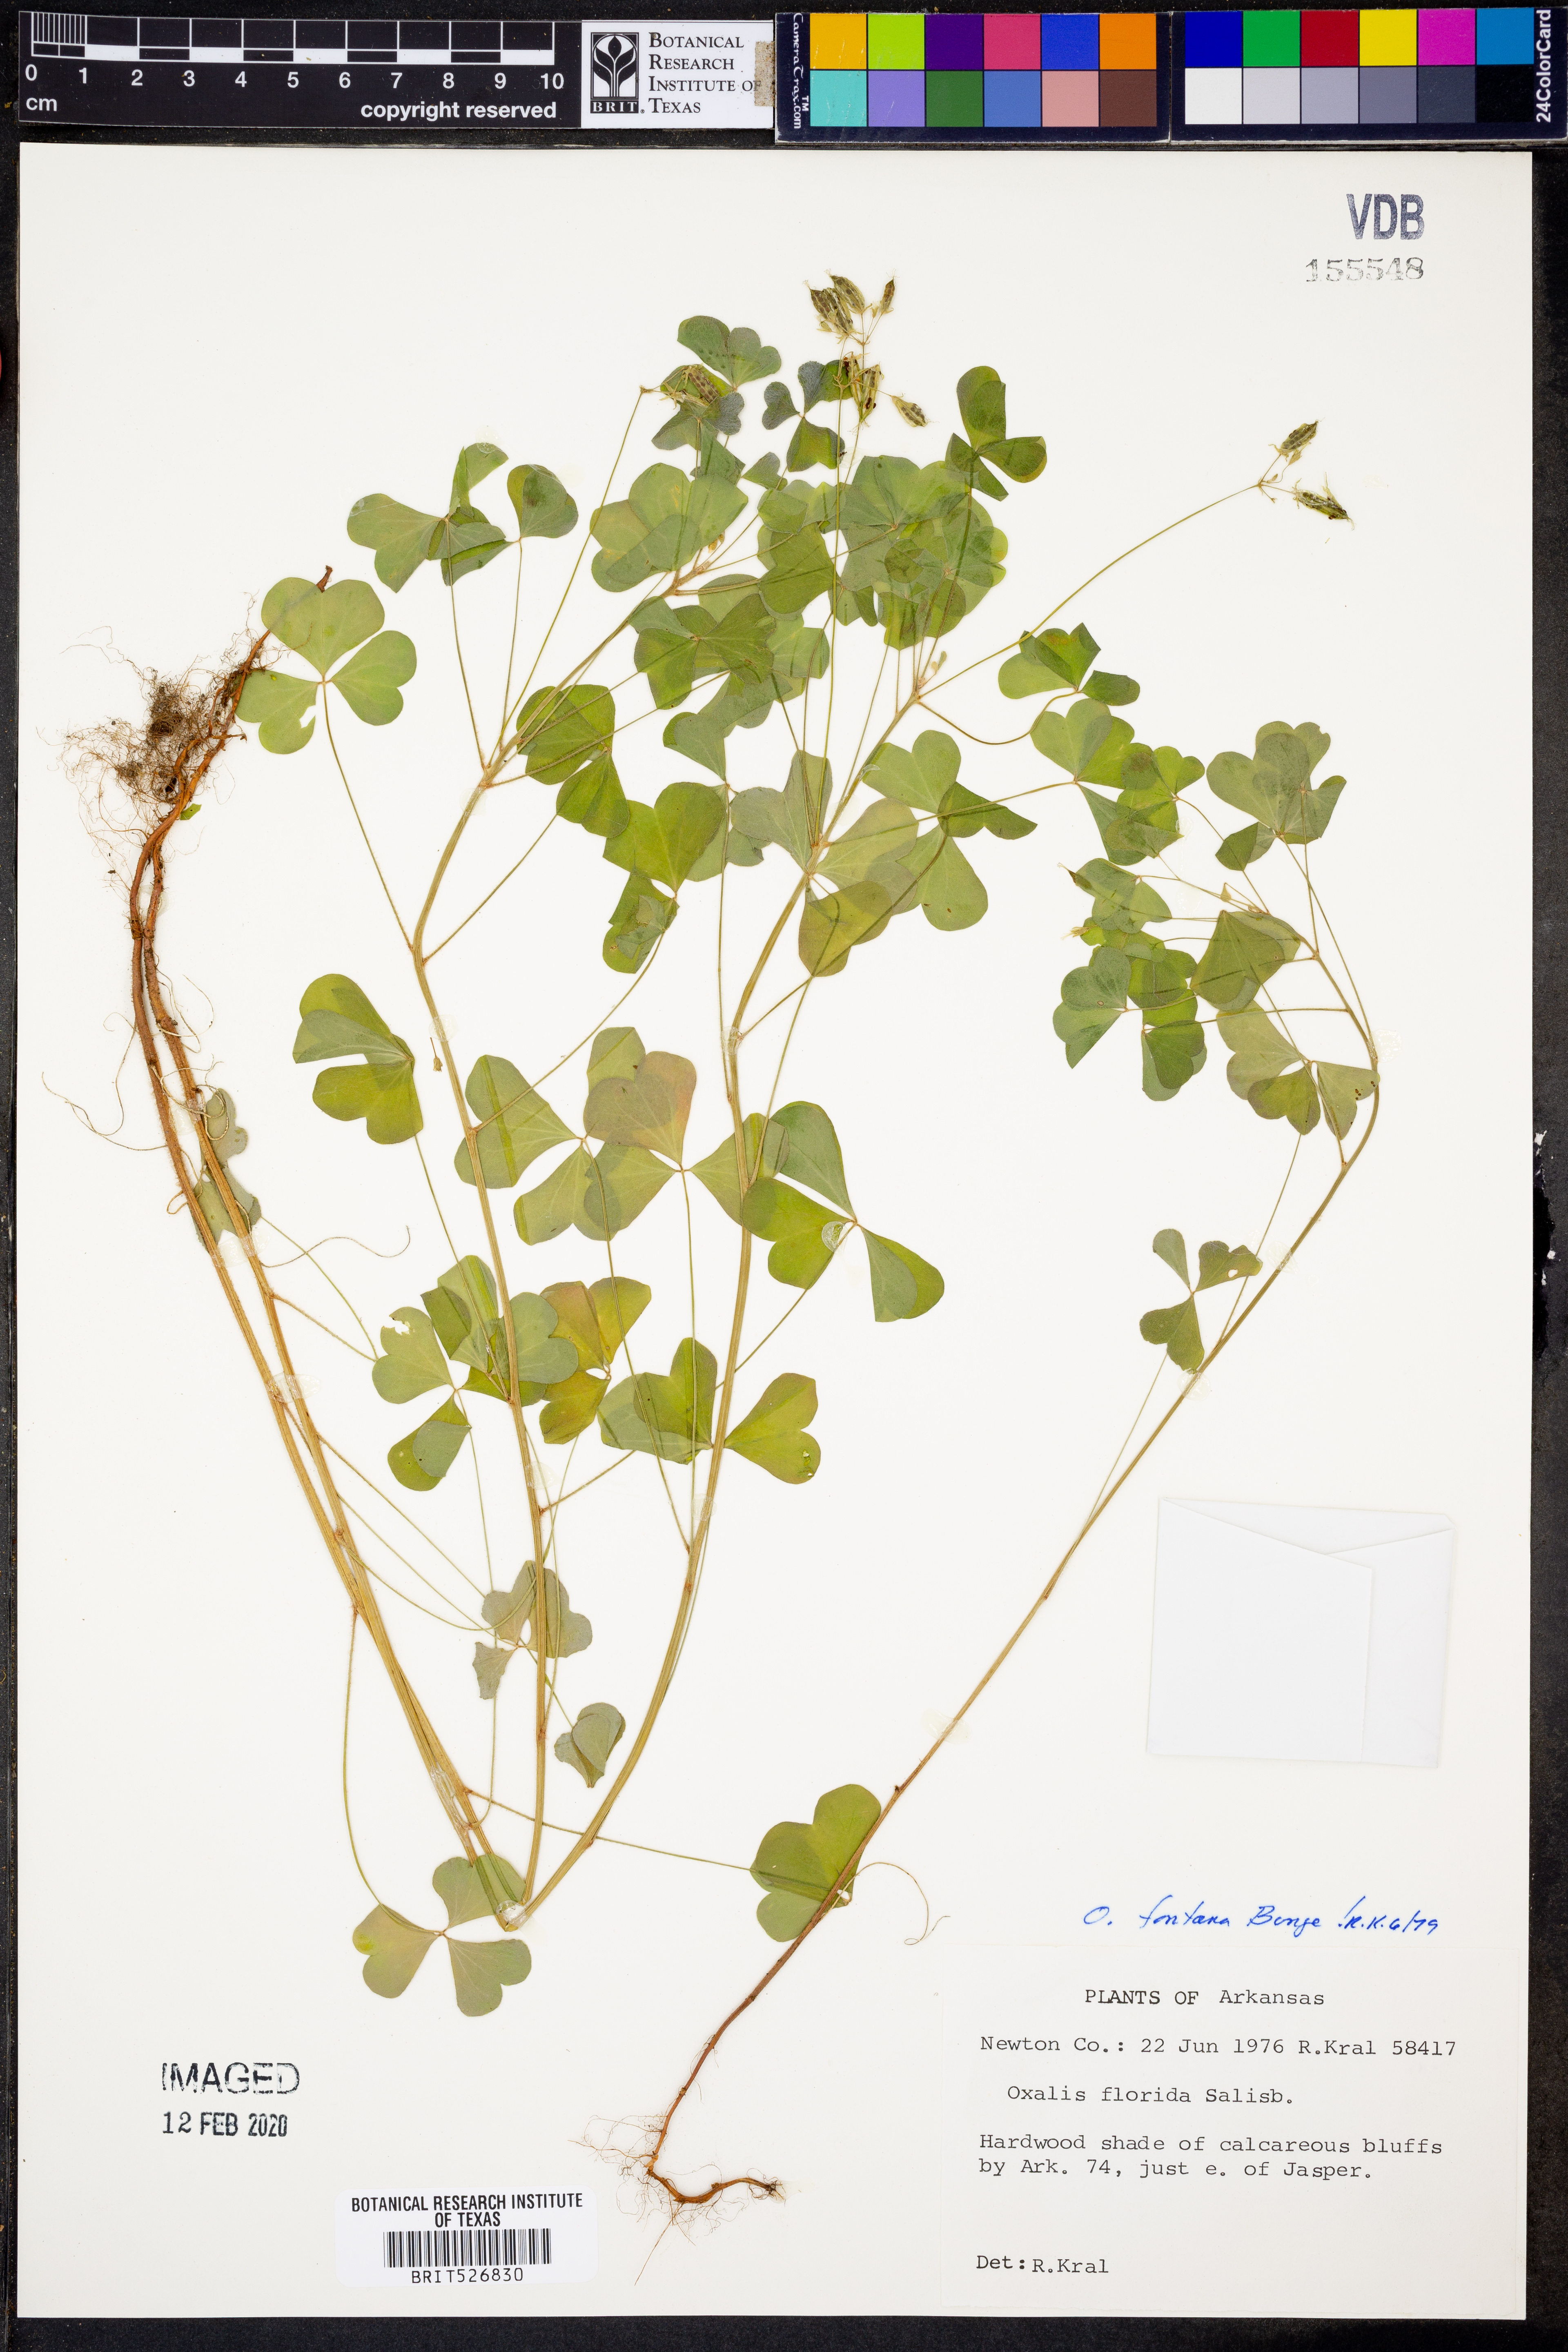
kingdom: Plantae
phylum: Tracheophyta
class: Magnoliopsida
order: Oxalidales
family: Oxalidaceae
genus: Oxalis
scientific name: Oxalis stricta
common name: Upright yellow-sorrel
